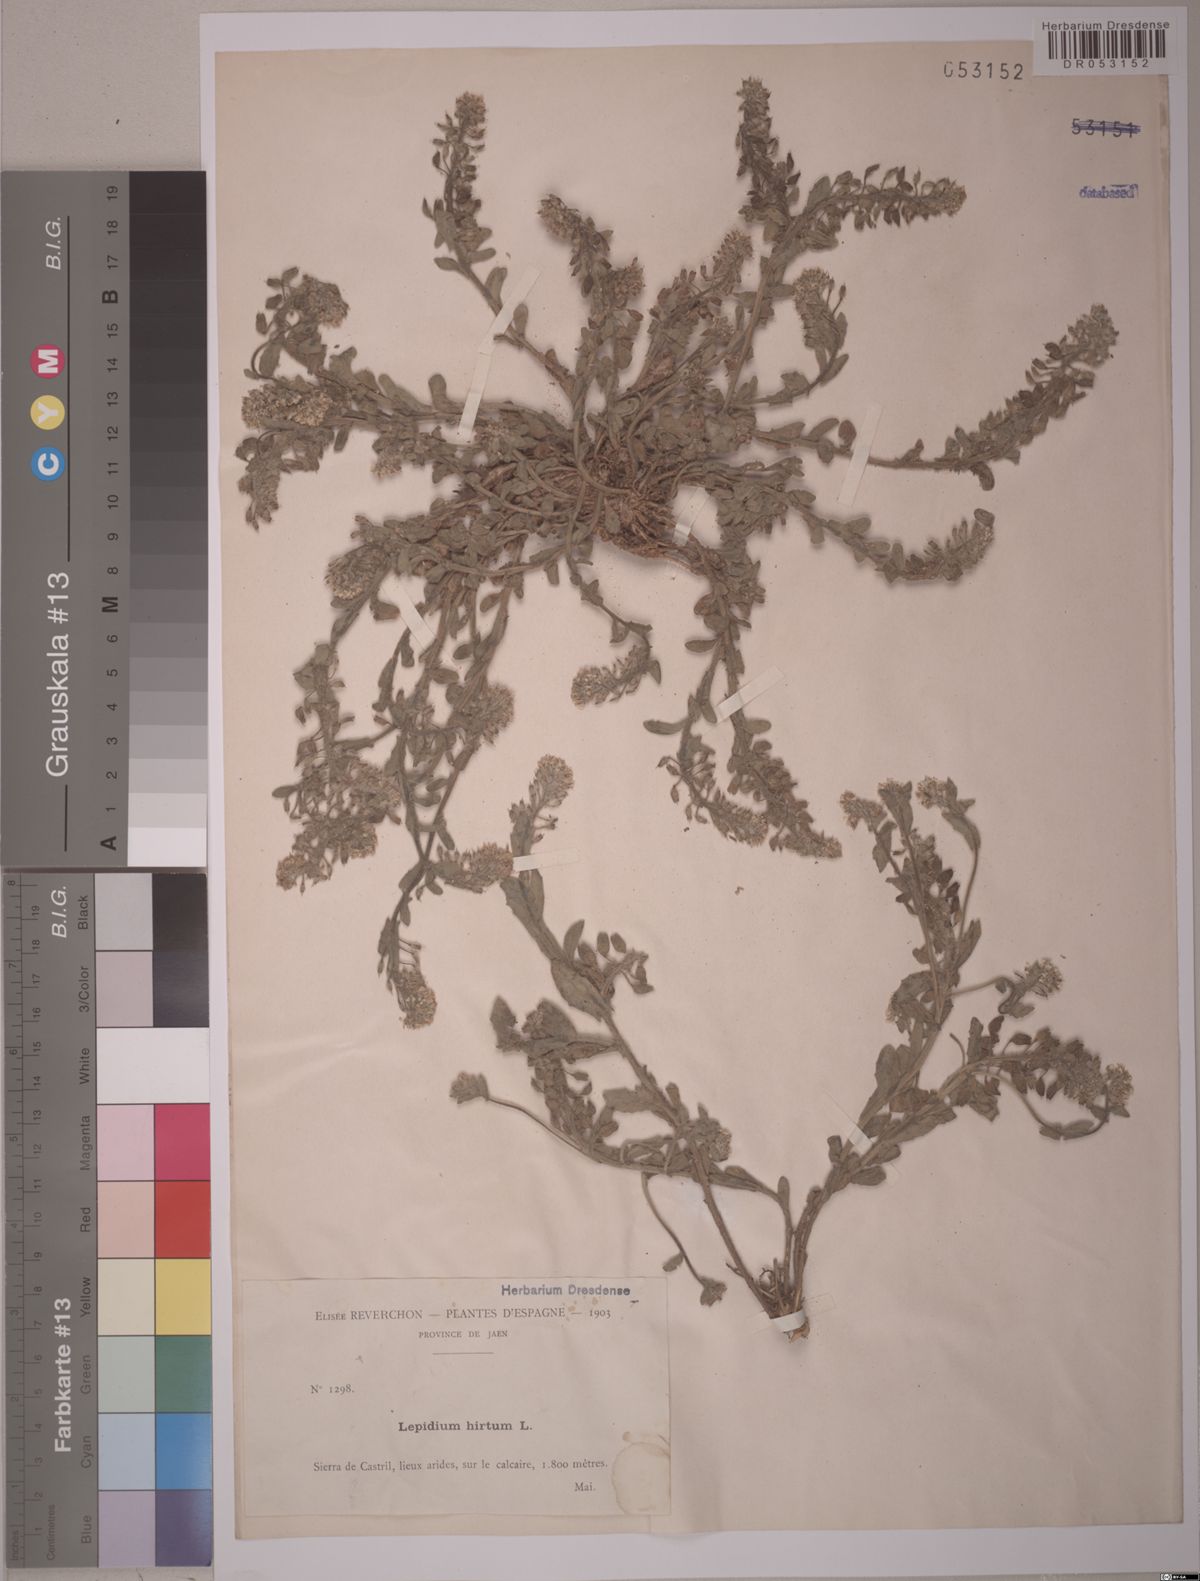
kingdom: Plantae
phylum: Tracheophyta
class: Magnoliopsida
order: Brassicales
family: Brassicaceae
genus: Lepidium
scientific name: Lepidium hirtum
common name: Mediterranean pepperweed
